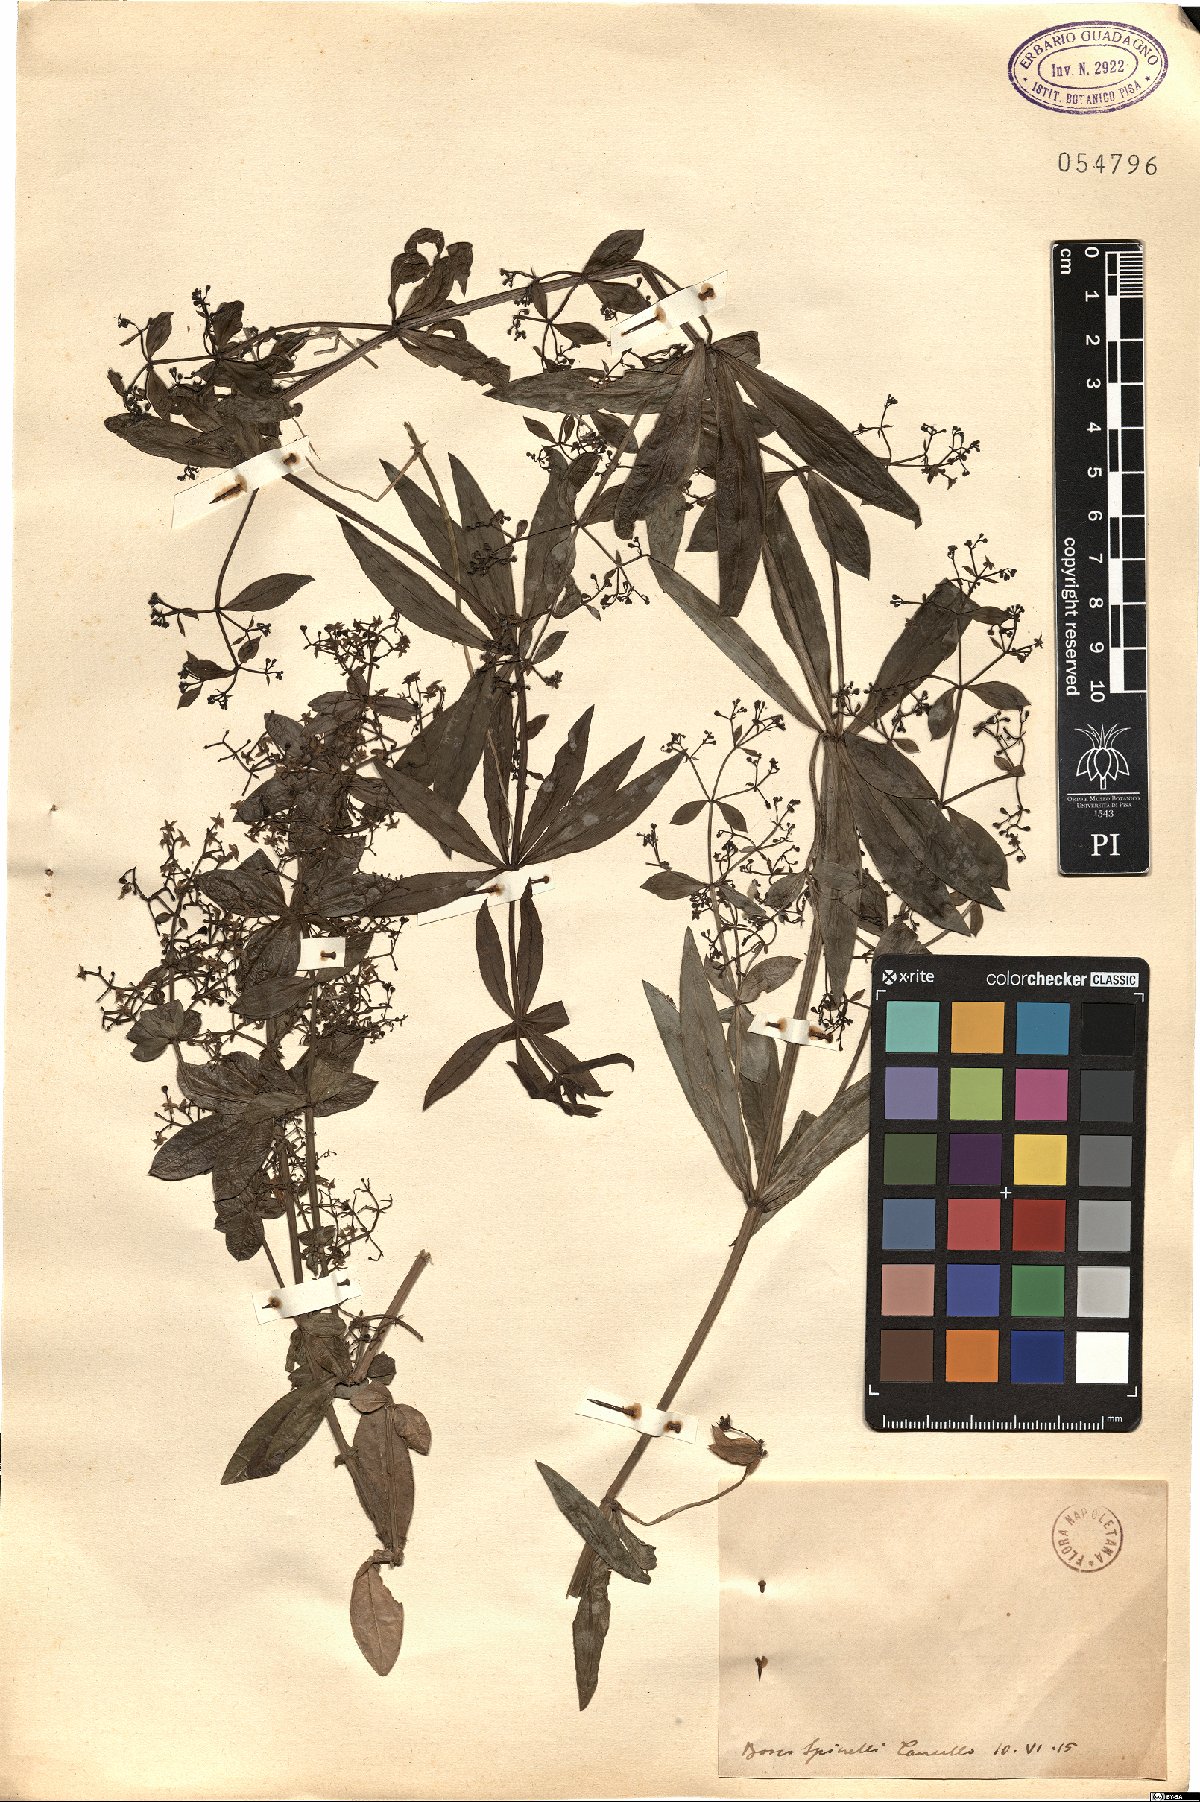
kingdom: Plantae
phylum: Tracheophyta
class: Magnoliopsida
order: Gentianales
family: Rubiaceae
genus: Rubia
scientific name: Rubia
